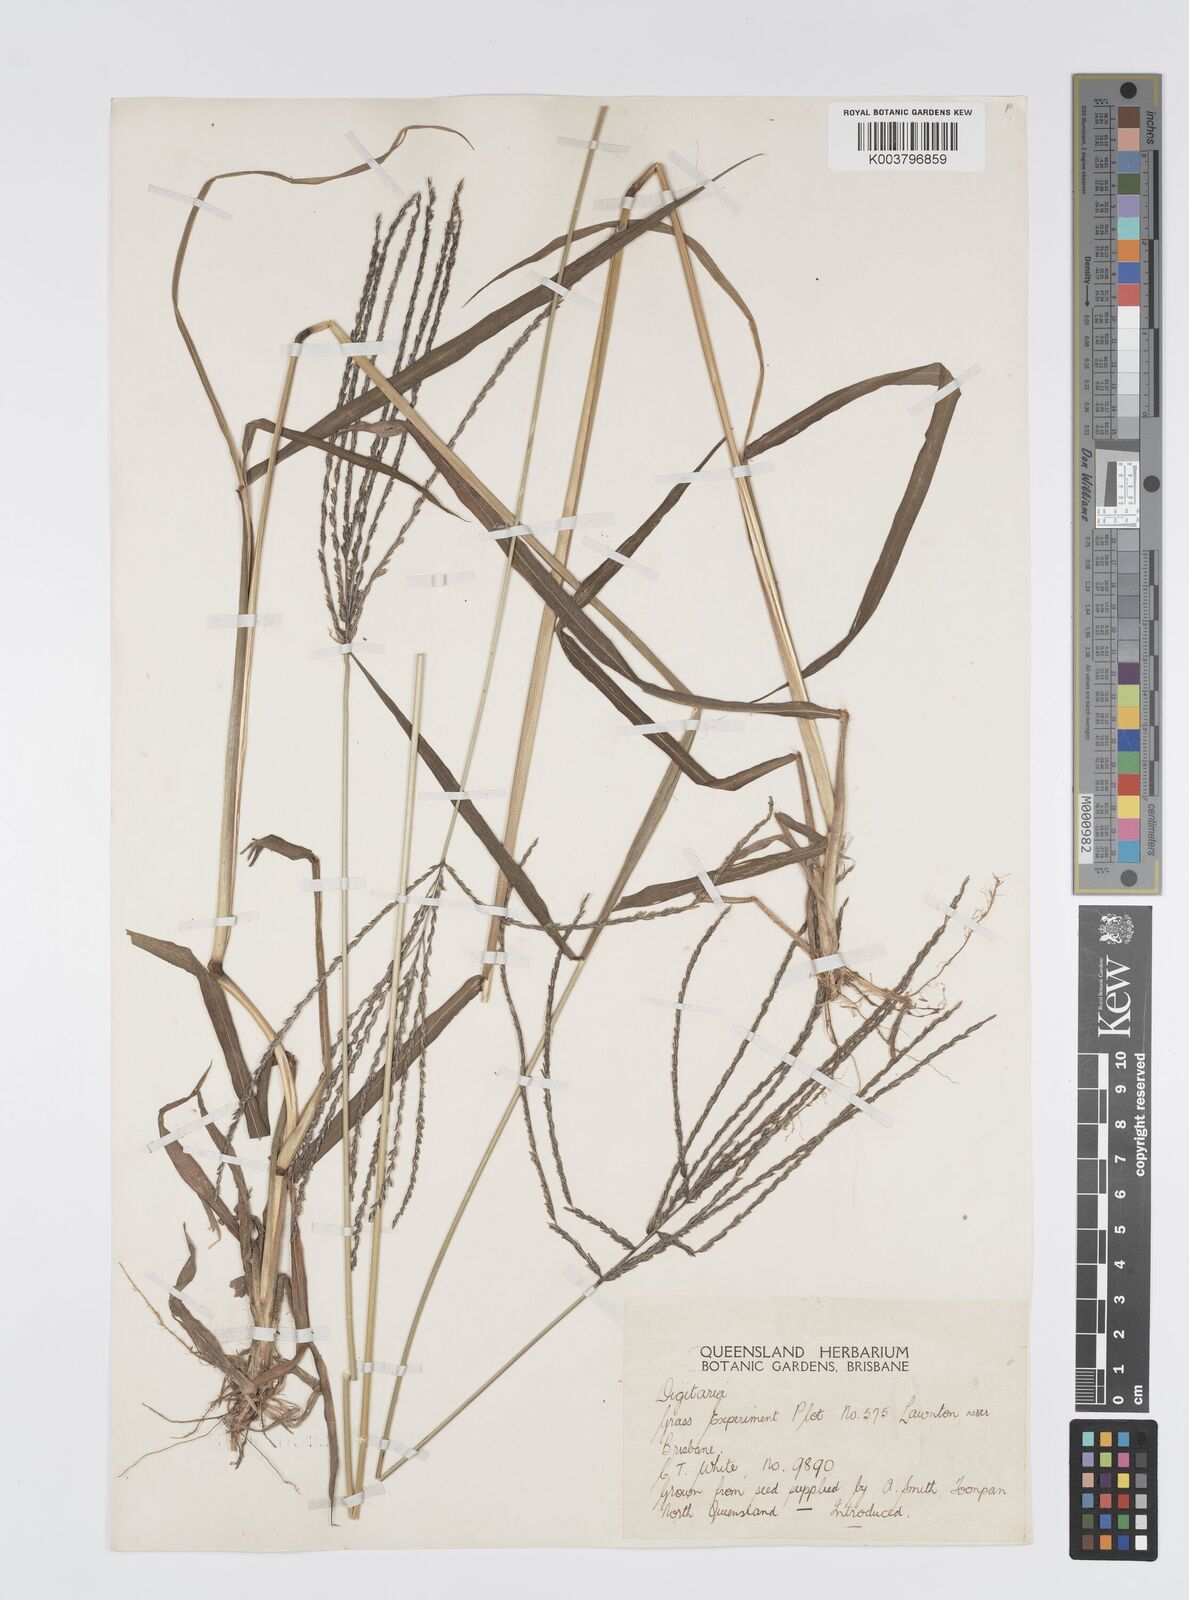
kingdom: Plantae
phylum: Tracheophyta
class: Liliopsida
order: Poales
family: Poaceae
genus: Digitaria
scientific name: Digitaria milanjiana
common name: Madagascar crabgrass
